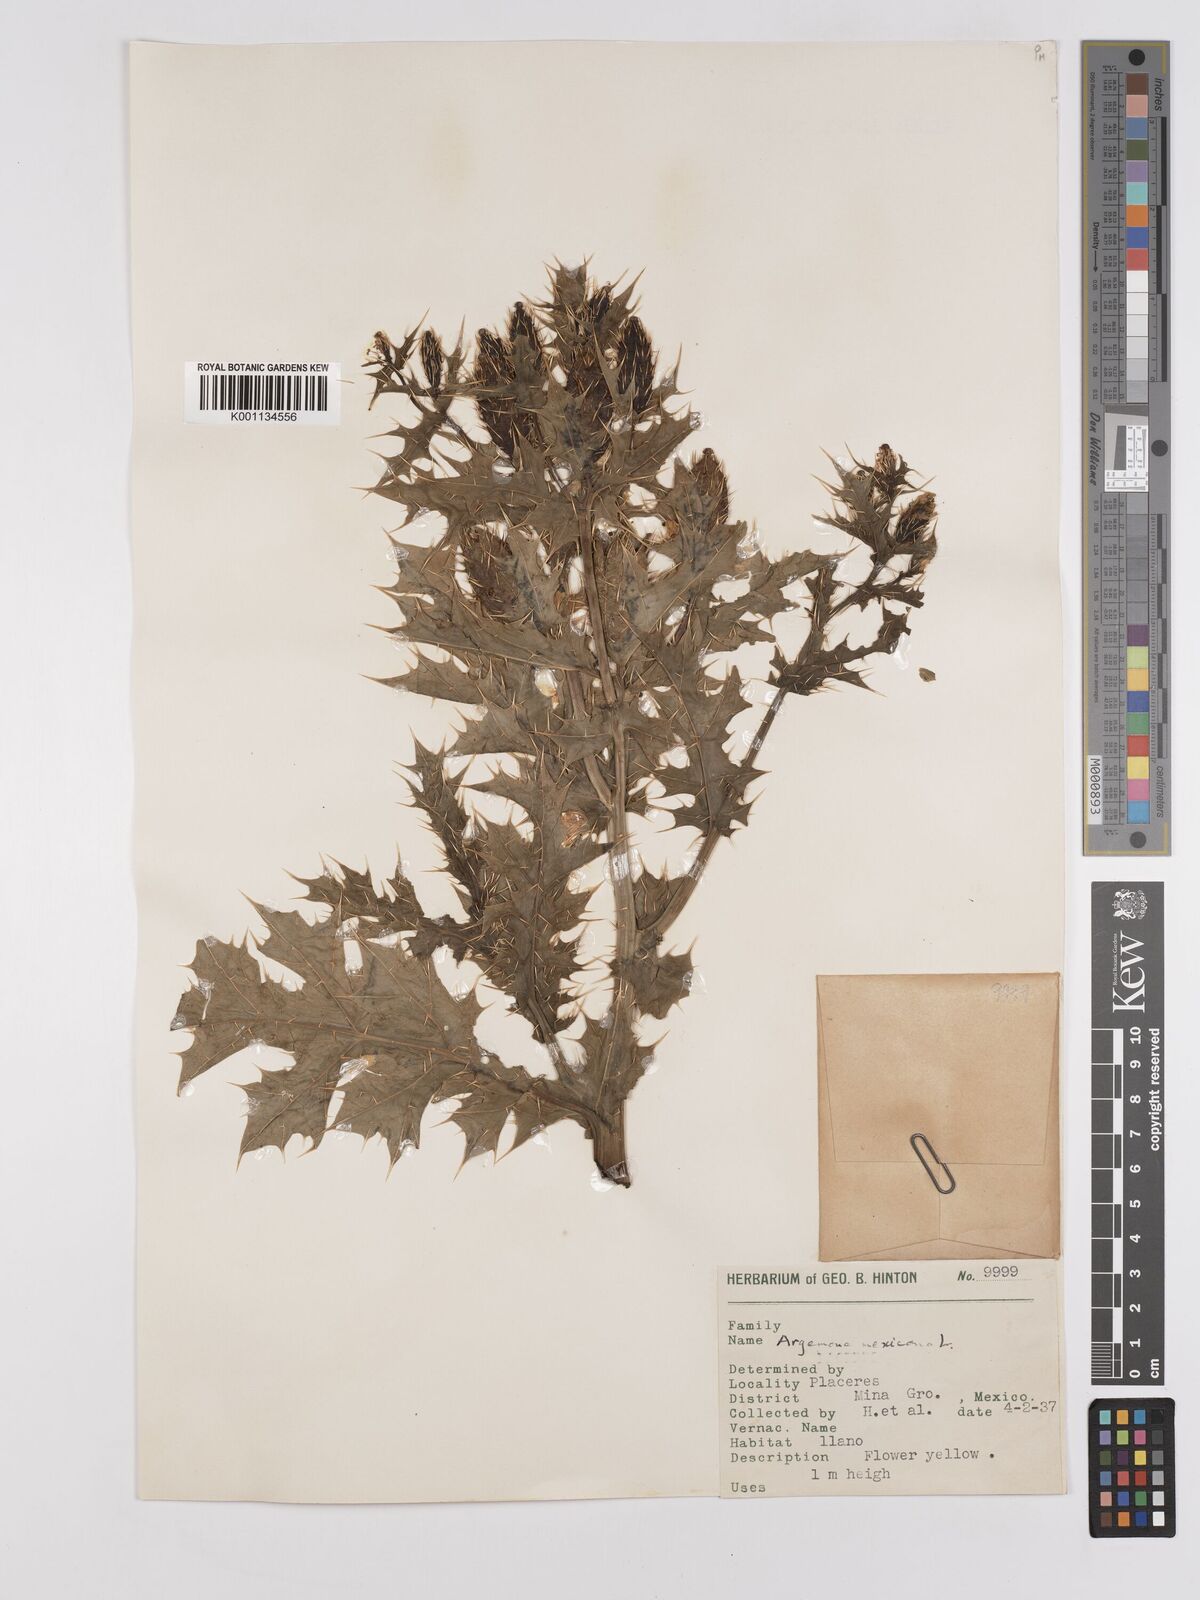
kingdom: Plantae
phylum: Tracheophyta
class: Magnoliopsida
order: Ranunculales
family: Papaveraceae
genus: Argemone
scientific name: Argemone mexicana
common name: Mexican poppy
